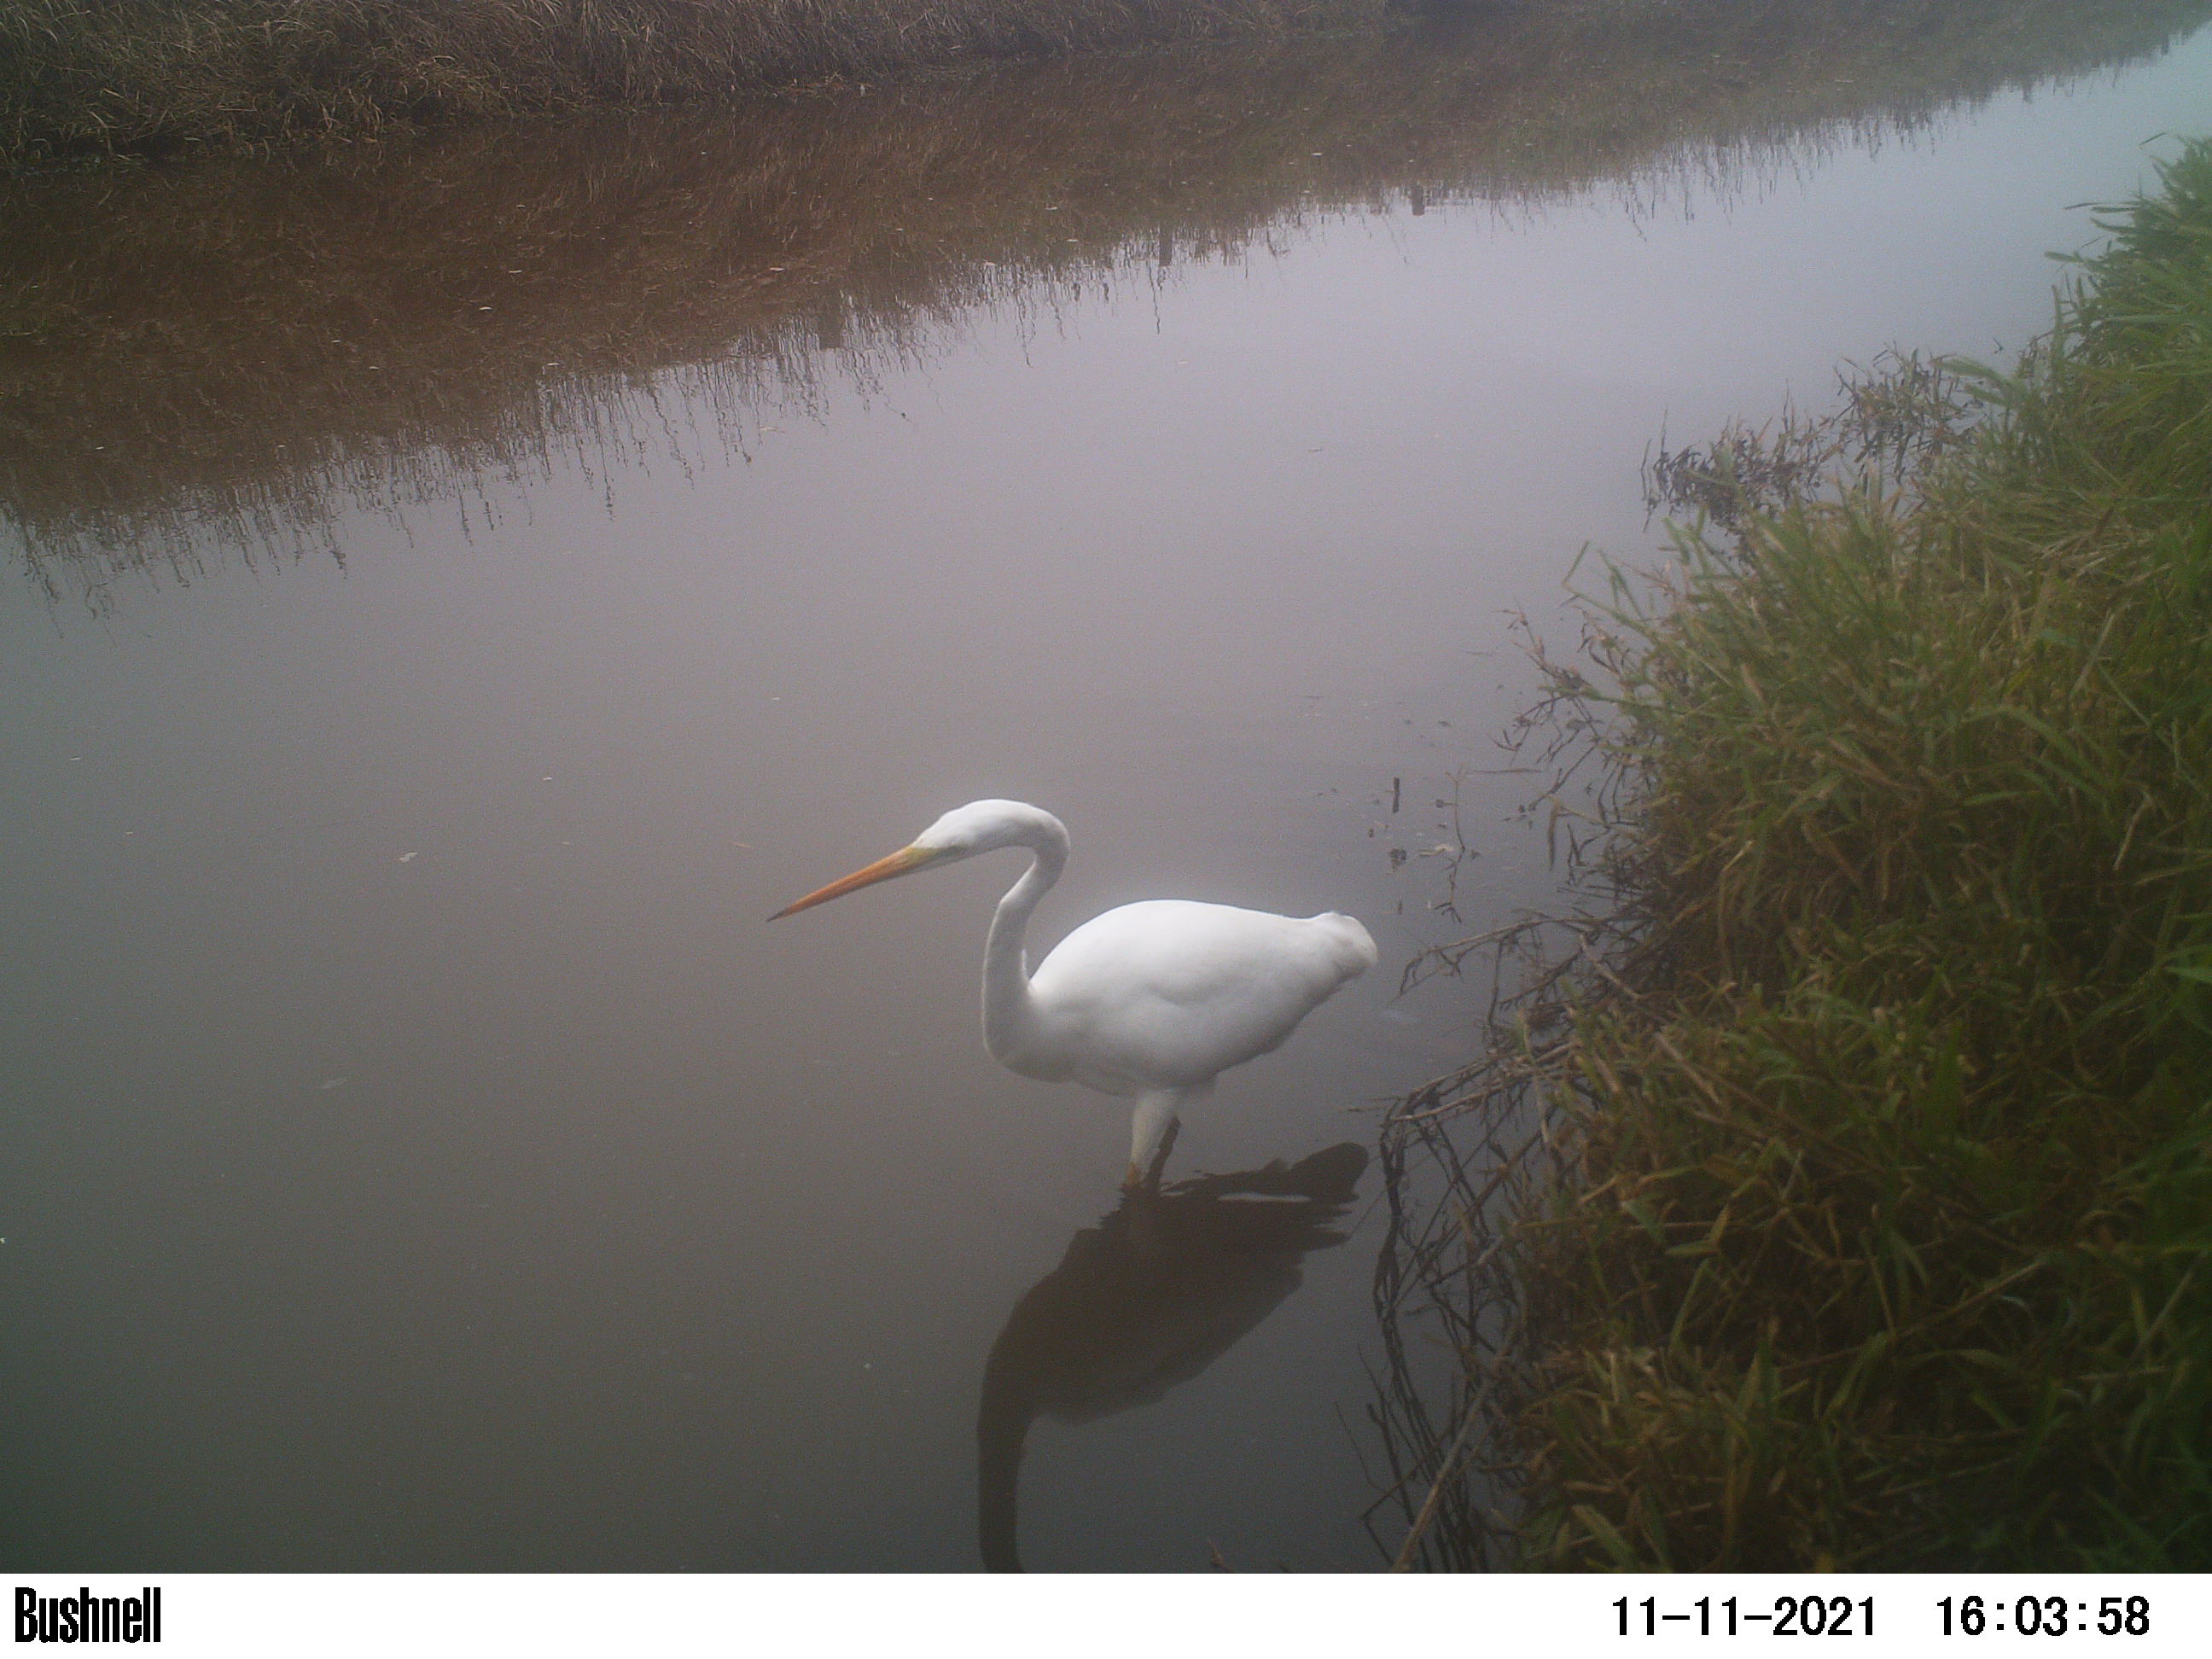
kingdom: Animalia
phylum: Chordata
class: Aves
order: Pelecaniformes
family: Ardeidae
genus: Ardea
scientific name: Ardea alba
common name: Great egret
